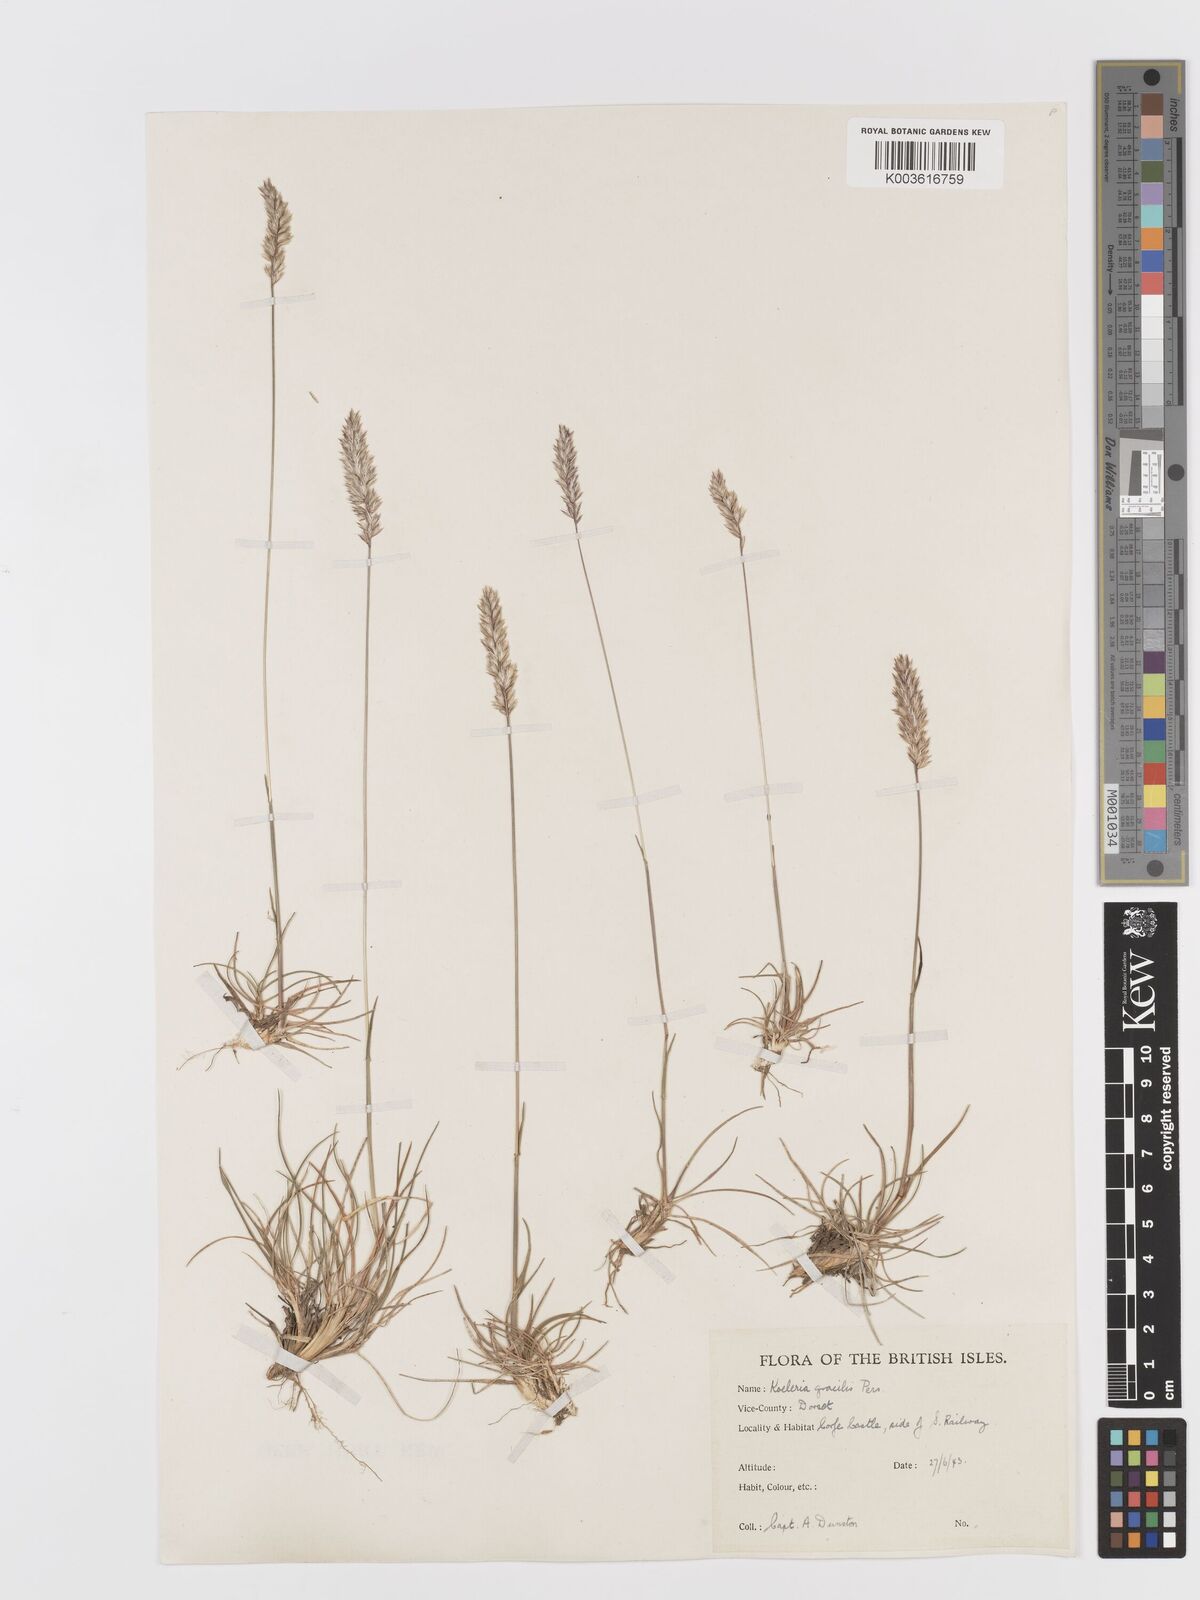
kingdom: Plantae
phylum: Tracheophyta
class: Liliopsida
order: Poales
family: Poaceae
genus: Koeleria
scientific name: Koeleria
